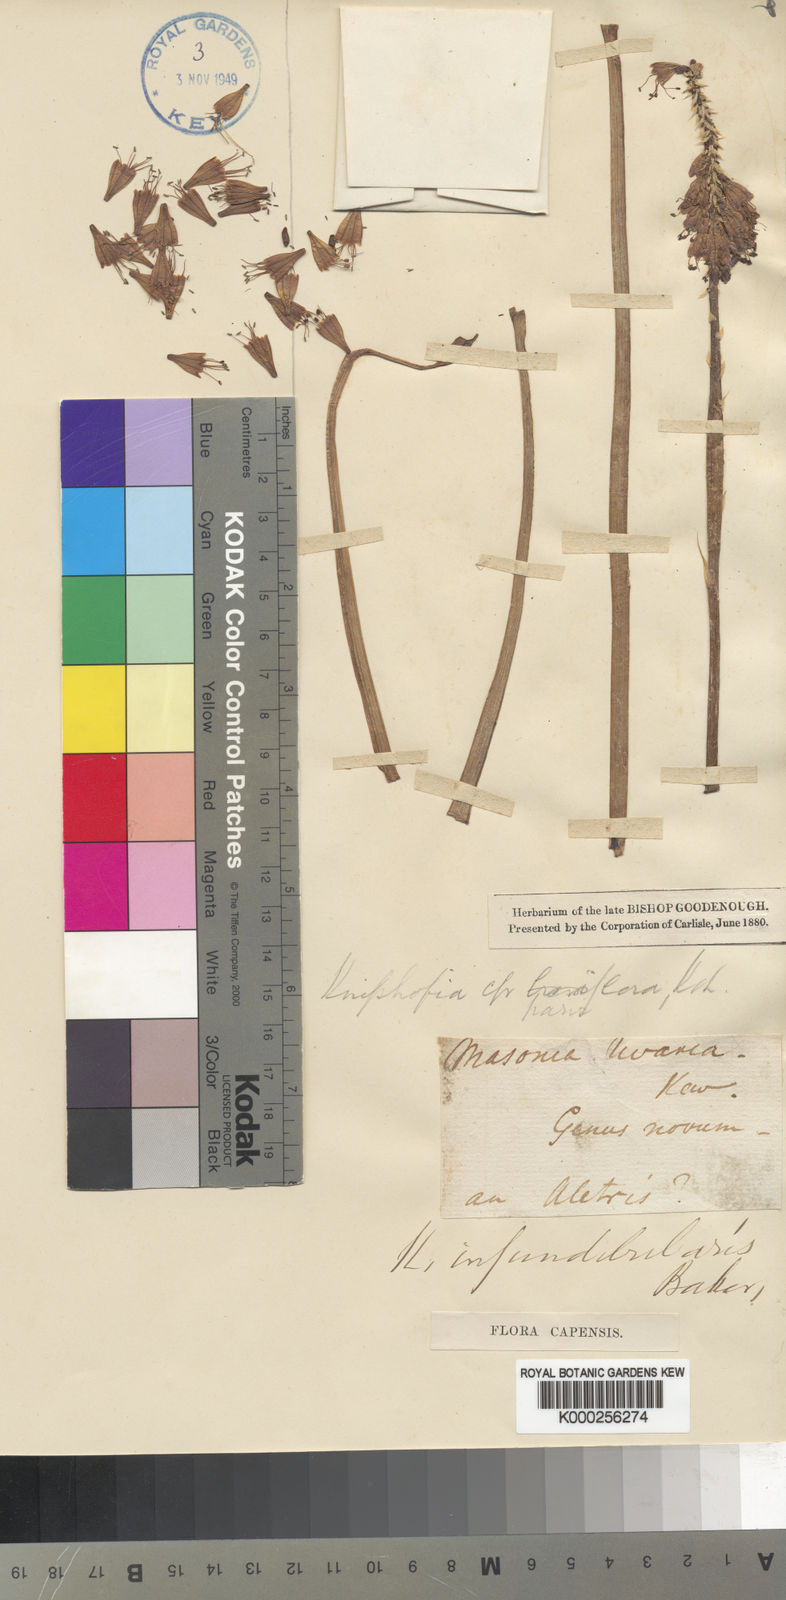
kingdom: Plantae
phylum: Tracheophyta
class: Liliopsida
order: Asparagales
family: Asphodelaceae
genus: Kniphofia
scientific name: Kniphofia pumila
